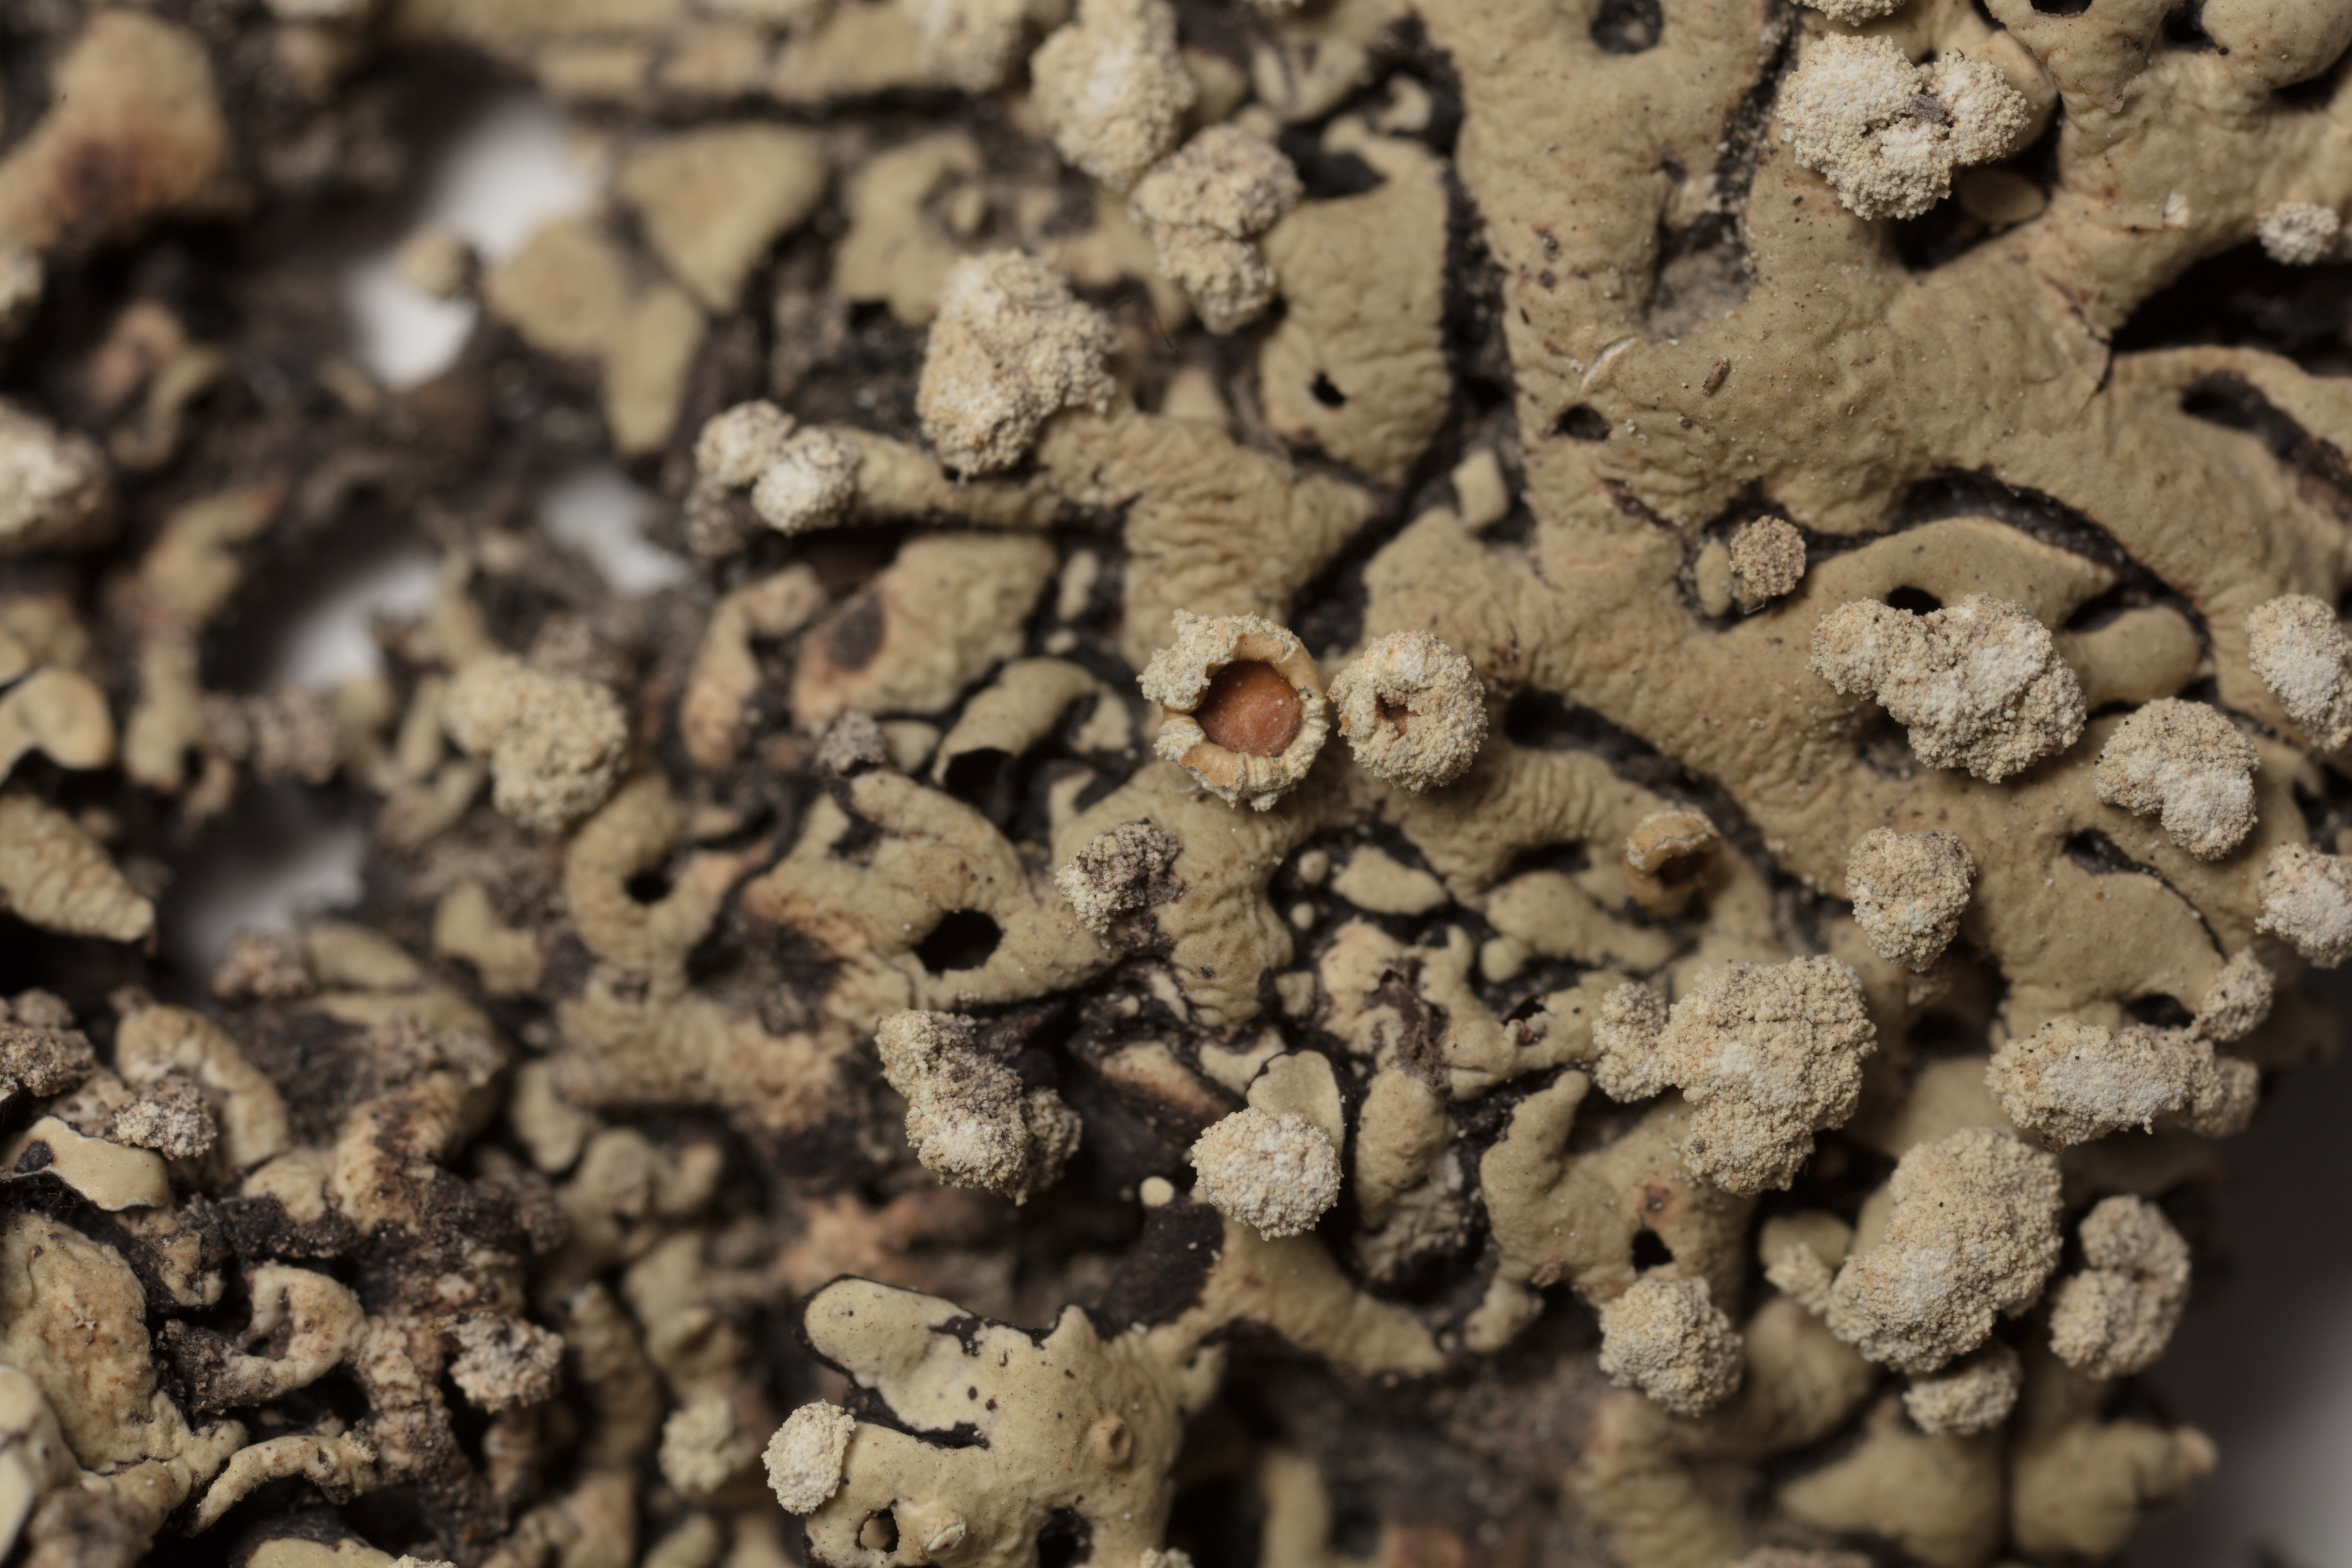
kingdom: Fungi
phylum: Ascomycota
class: Lecanoromycetes
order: Lecanorales
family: Parmeliaceae
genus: Menegazzia
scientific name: Menegazzia caliginosa
